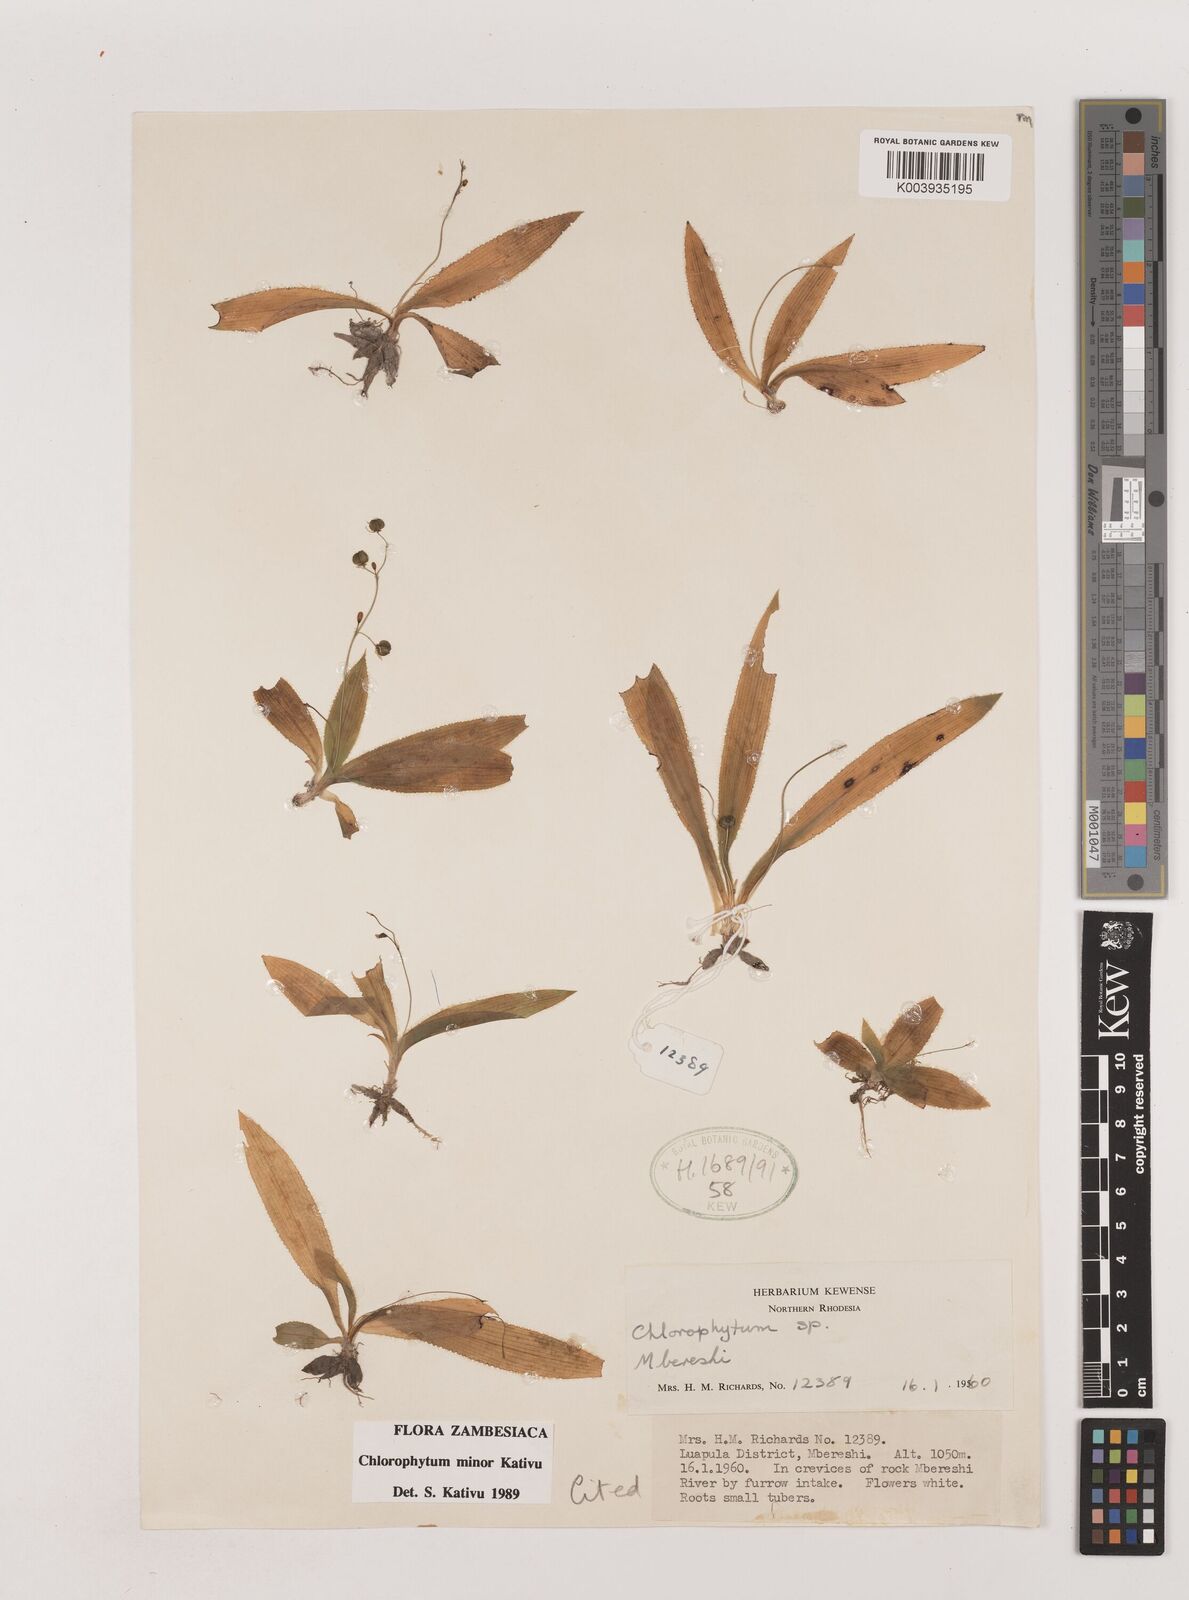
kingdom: Plantae
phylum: Tracheophyta
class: Liliopsida
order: Asparagales
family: Asparagaceae
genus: Chlorophytum
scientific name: Chlorophytum minor
